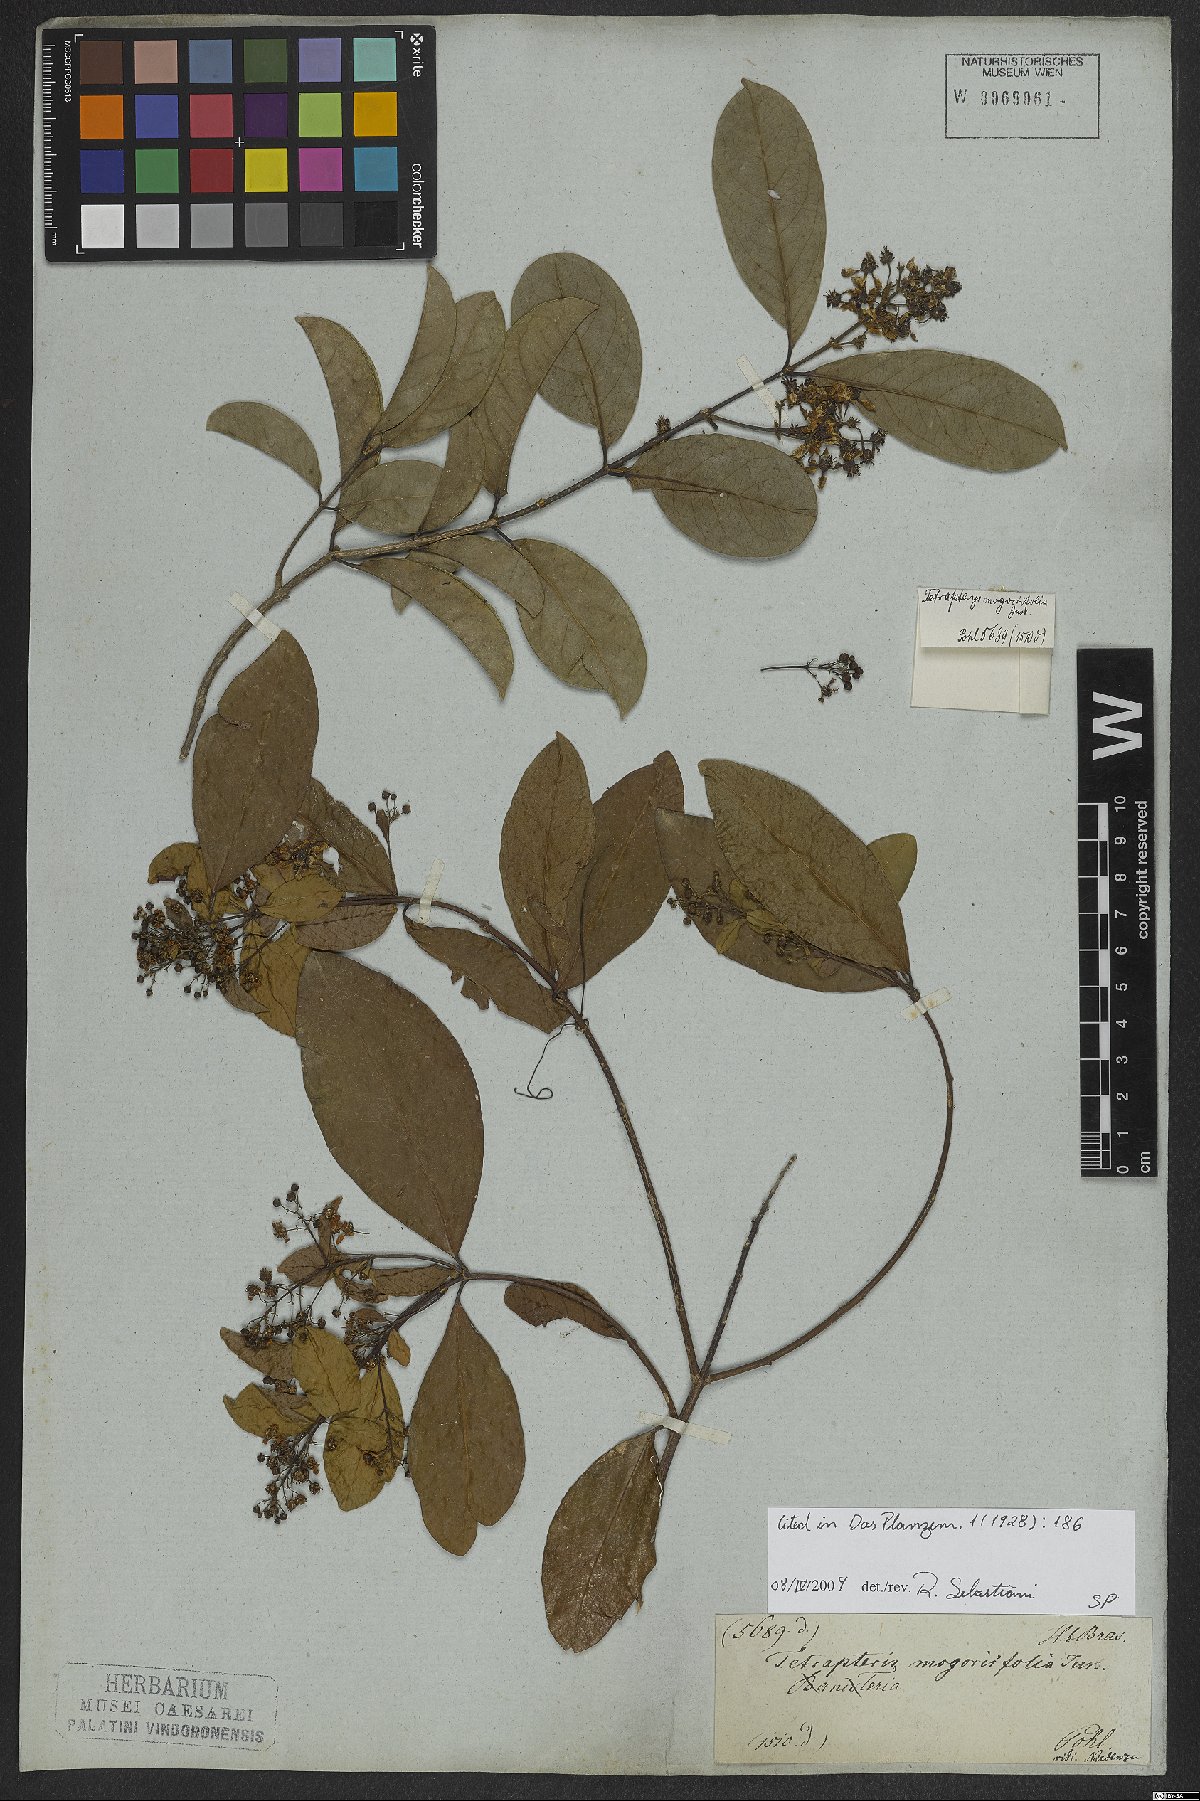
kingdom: Plantae
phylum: Tracheophyta
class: Magnoliopsida
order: Malpighiales
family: Malpighiaceae
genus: Niedenzuella
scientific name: Niedenzuella mogoriifolia
